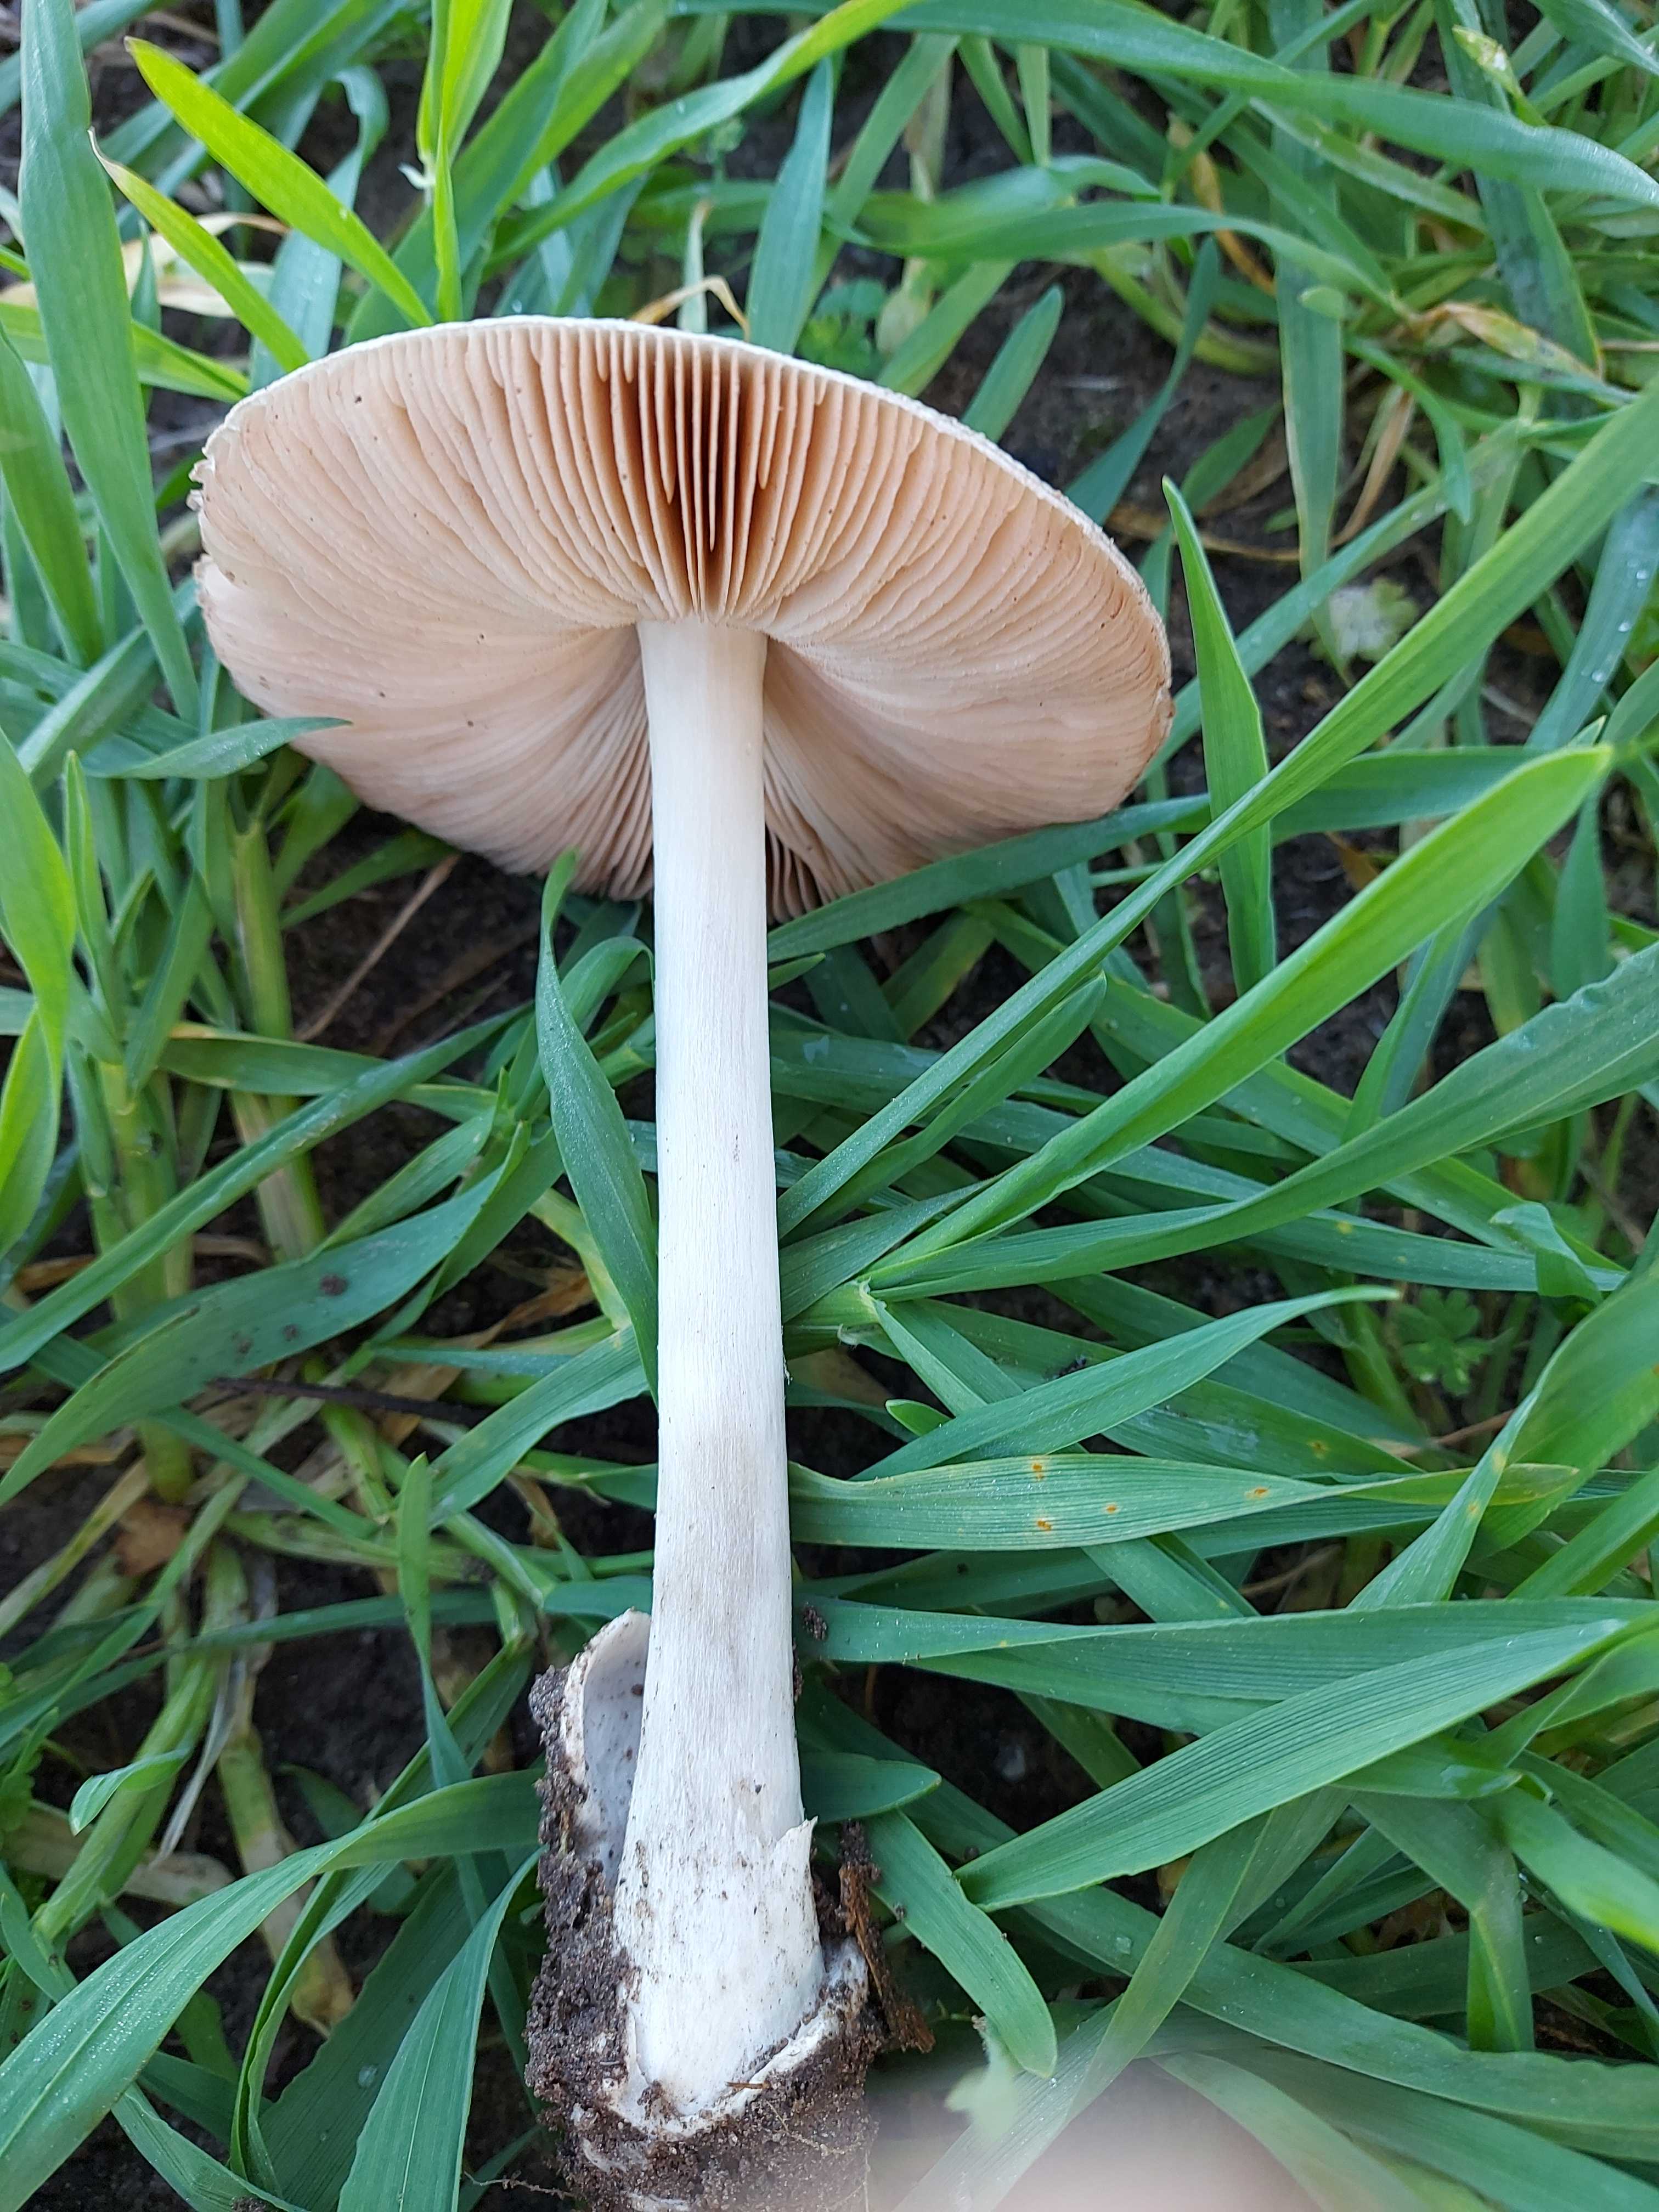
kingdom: Fungi
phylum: Basidiomycota
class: Agaricomycetes
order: Agaricales
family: Pluteaceae
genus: Volvopluteus
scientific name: Volvopluteus gloiocephalus
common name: høj posesvamp
